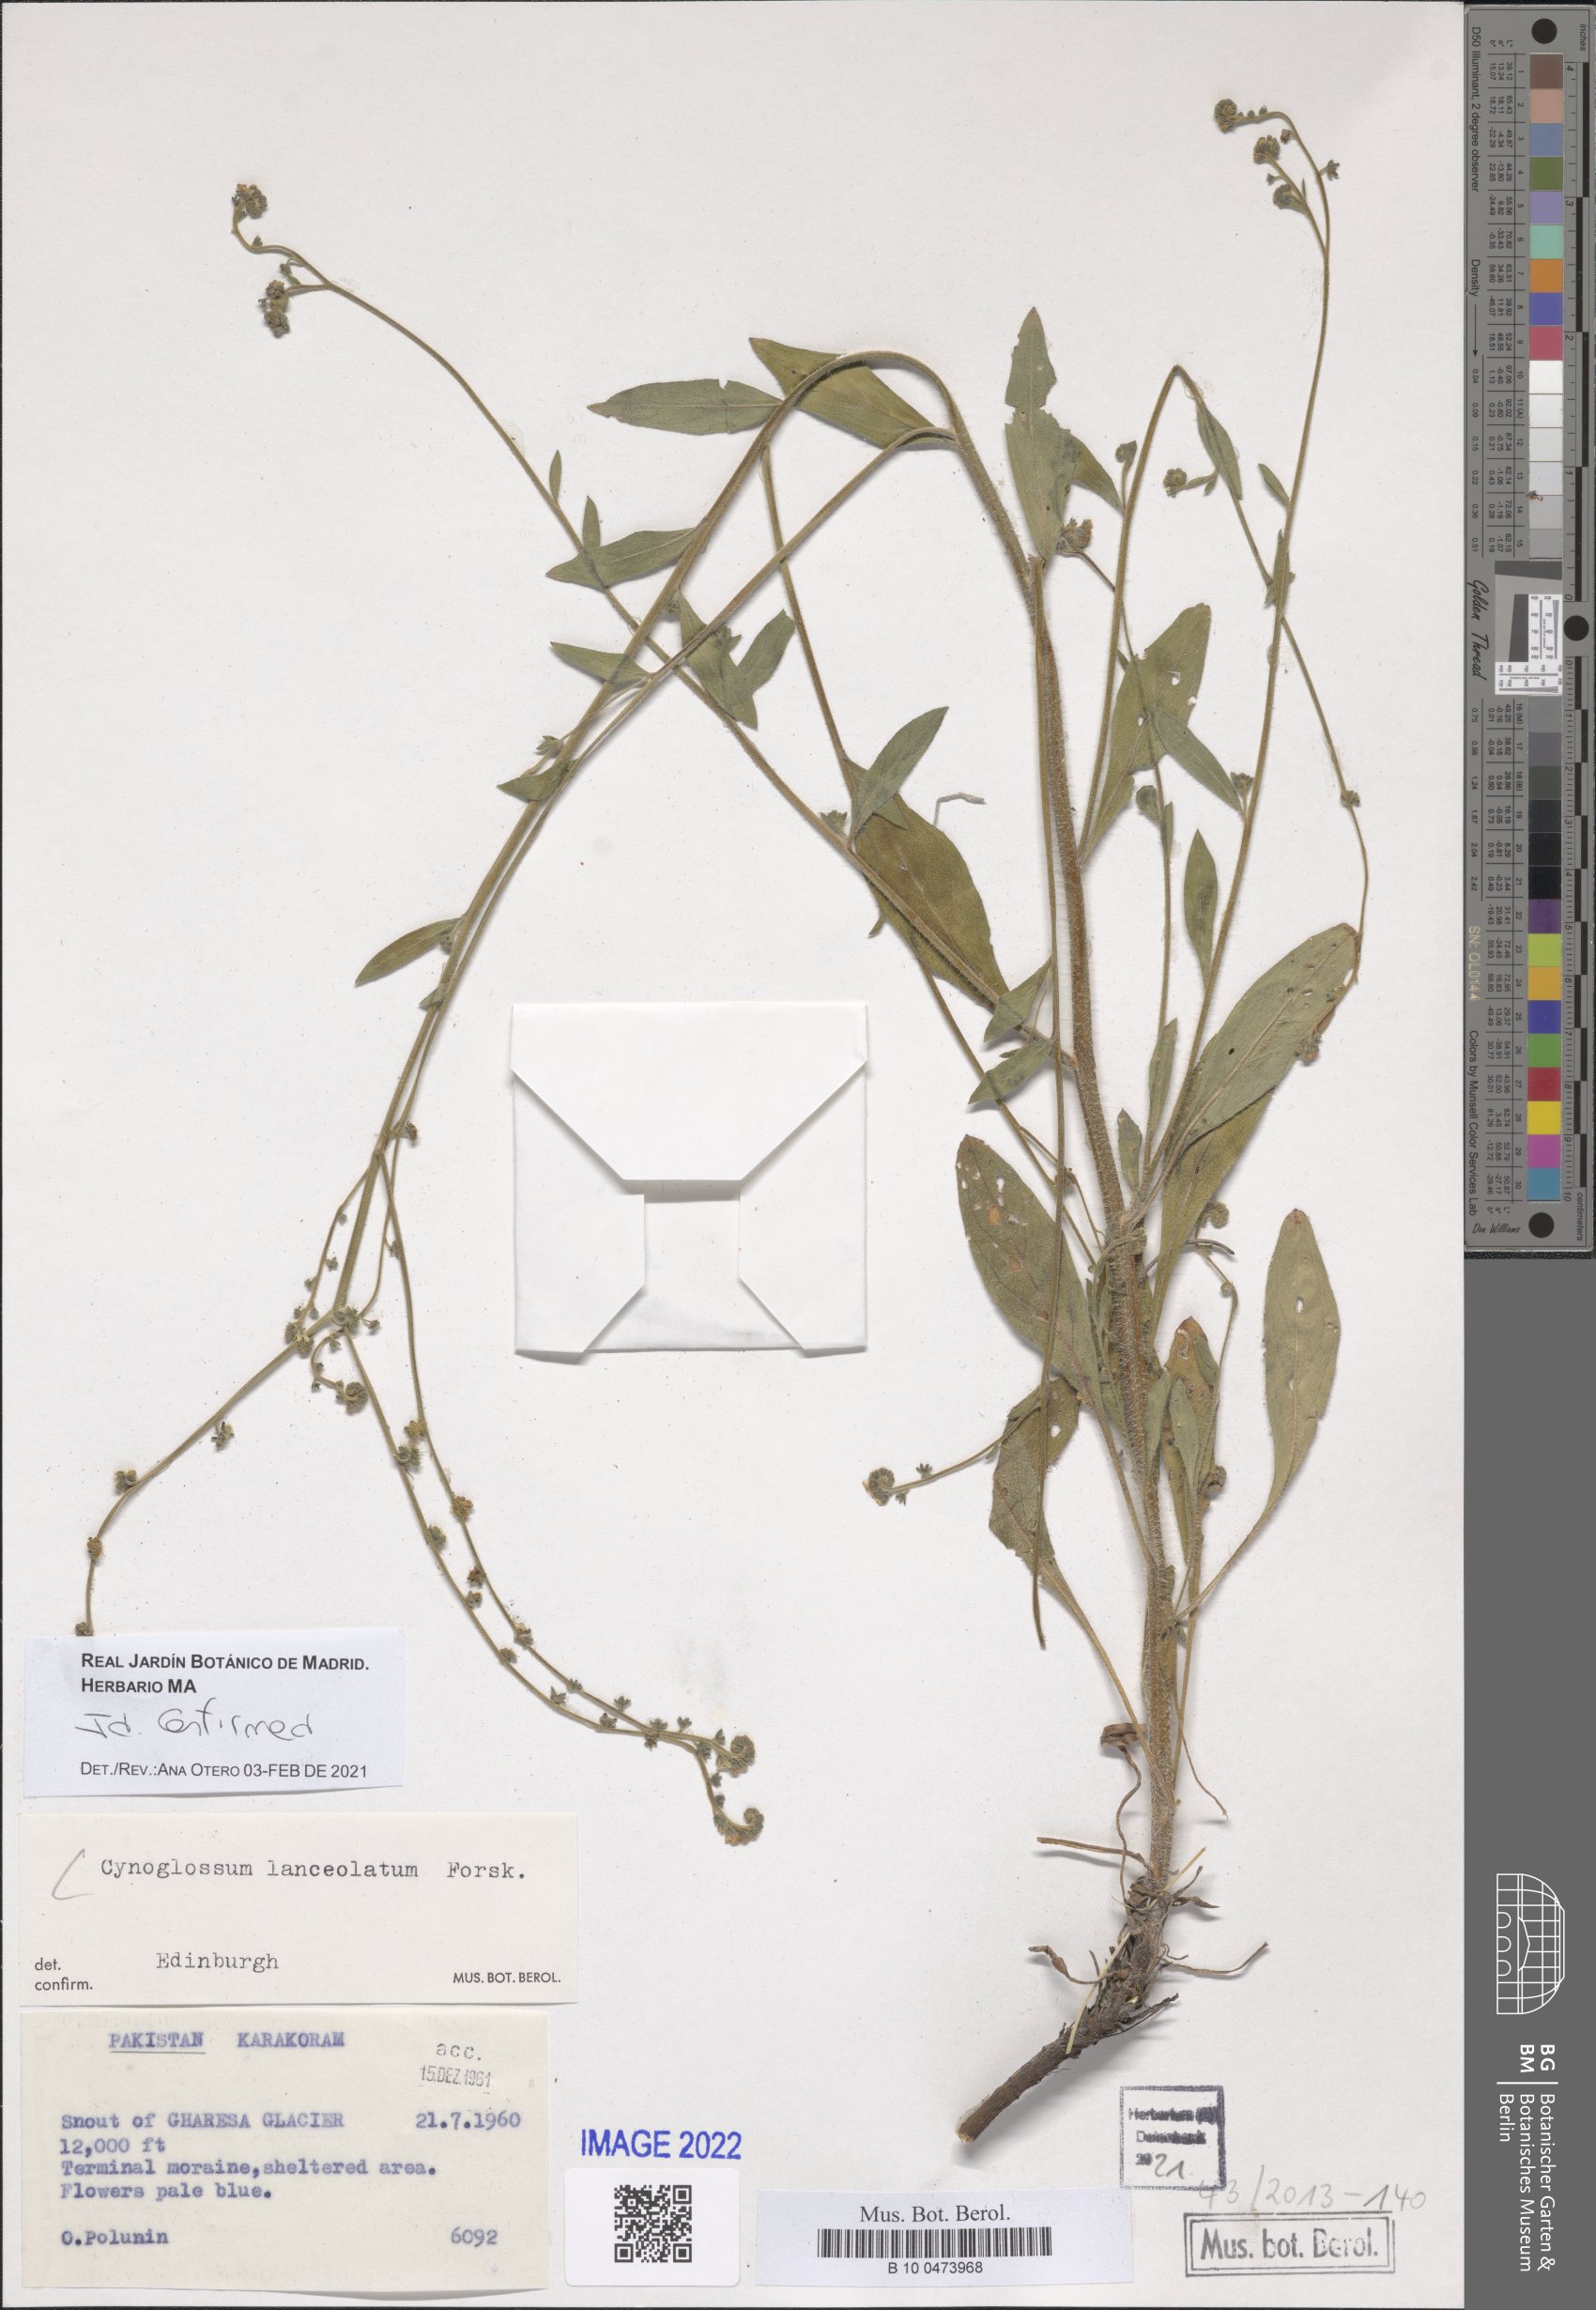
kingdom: Plantae
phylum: Tracheophyta
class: Magnoliopsida
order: Boraginales
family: Boraginaceae
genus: Paracynoglossum
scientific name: Paracynoglossum lanceolatum
